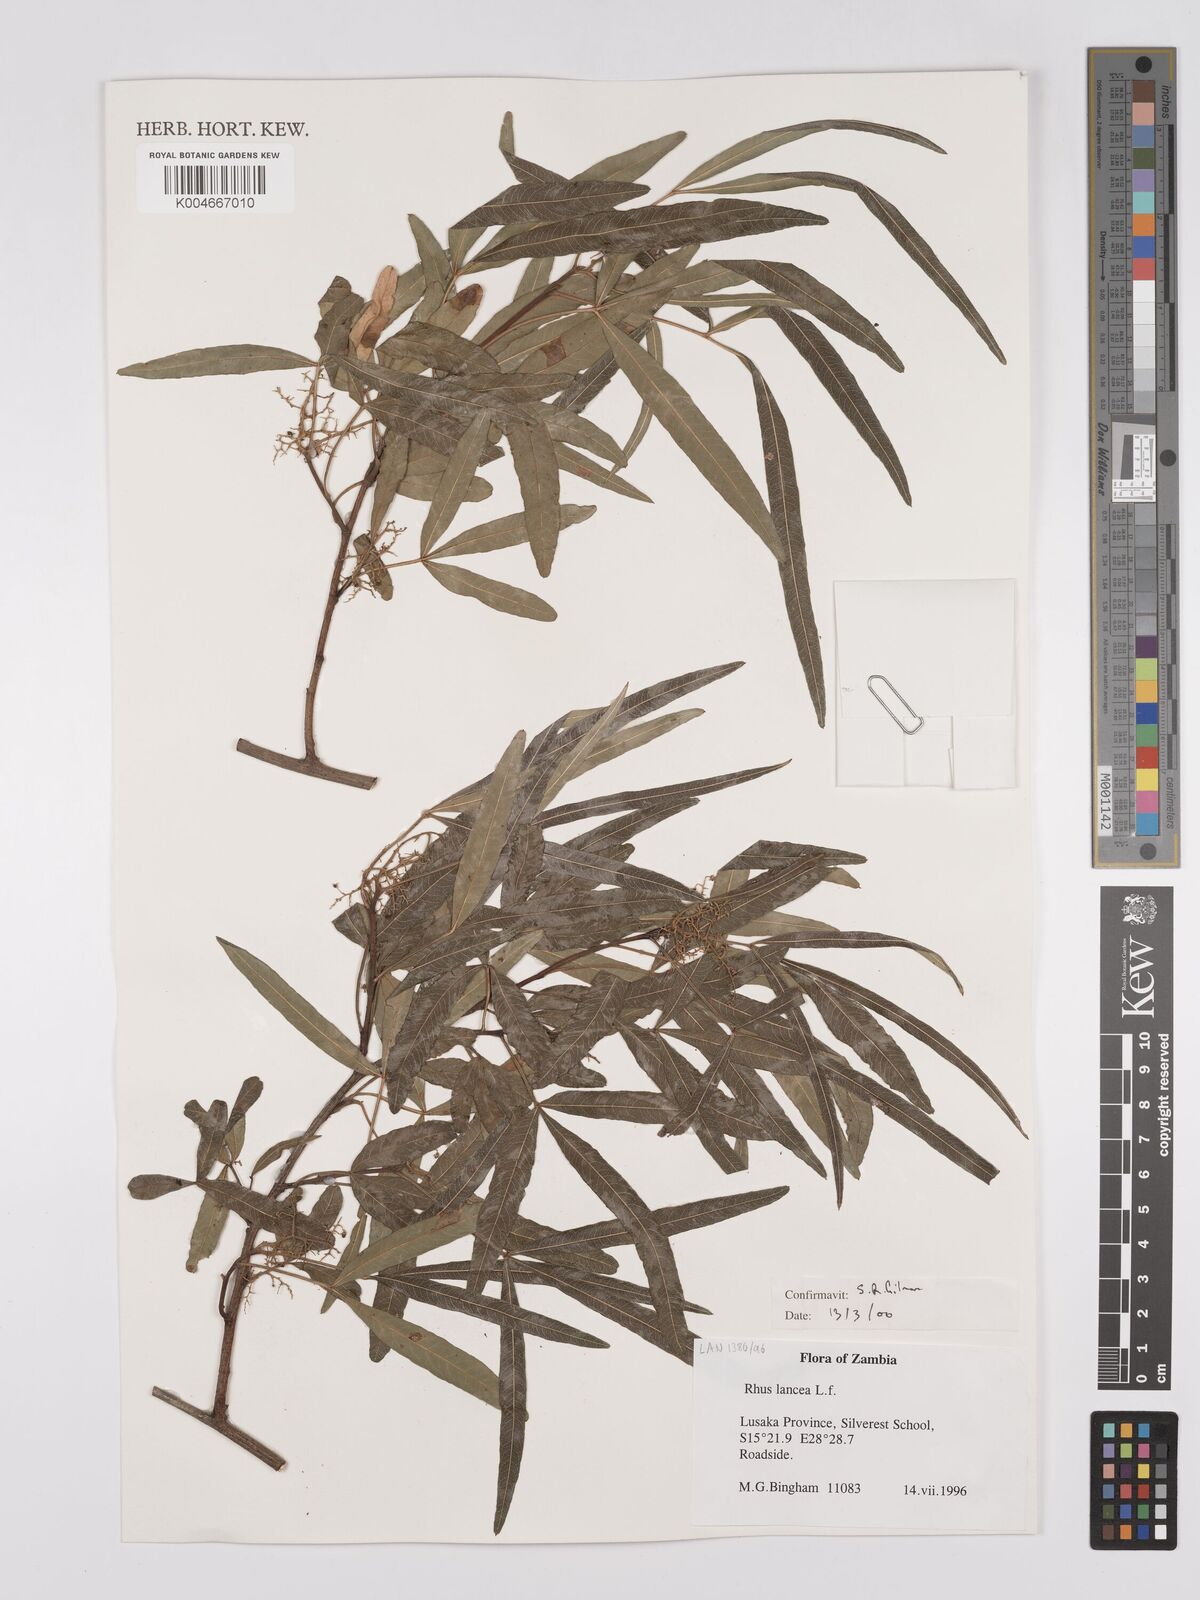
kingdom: Plantae
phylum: Tracheophyta
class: Magnoliopsida
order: Sapindales
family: Anacardiaceae
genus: Searsia
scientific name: Searsia lancea
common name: Cashew
